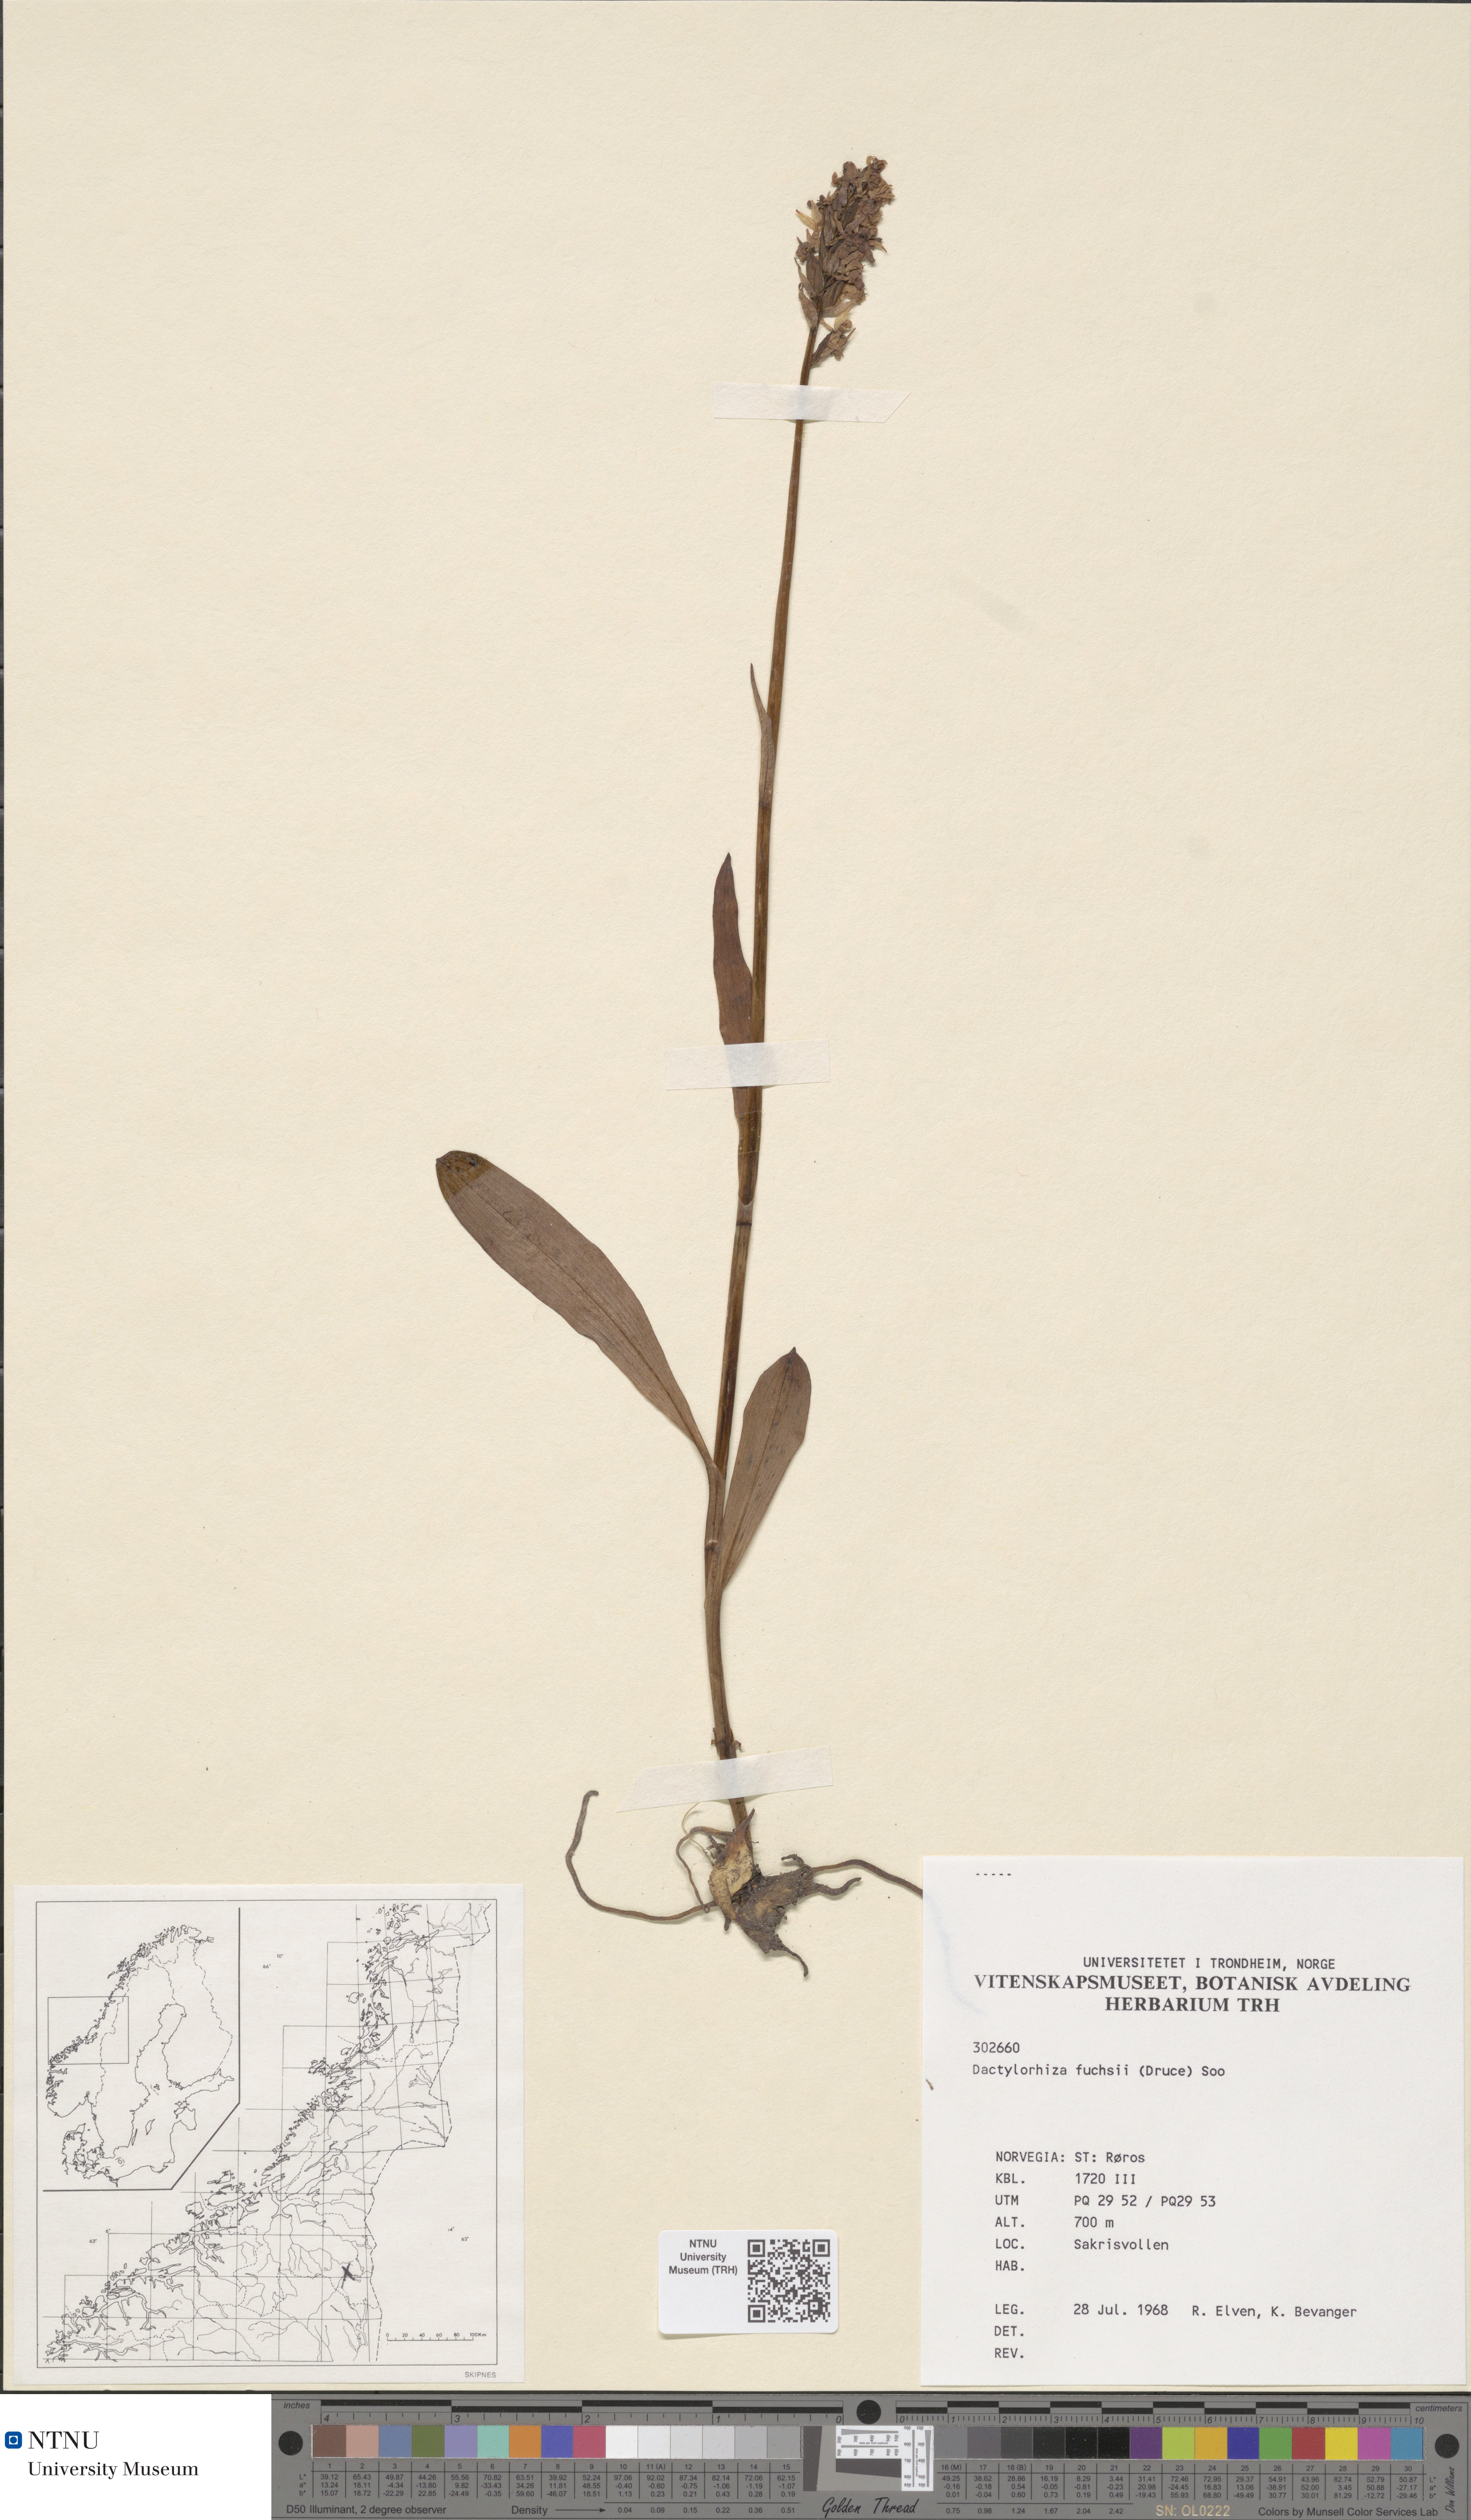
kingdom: Plantae
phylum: Tracheophyta
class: Liliopsida
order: Asparagales
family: Orchidaceae
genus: Dactylorhiza
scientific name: Dactylorhiza maculata
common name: Heath spotted-orchid
